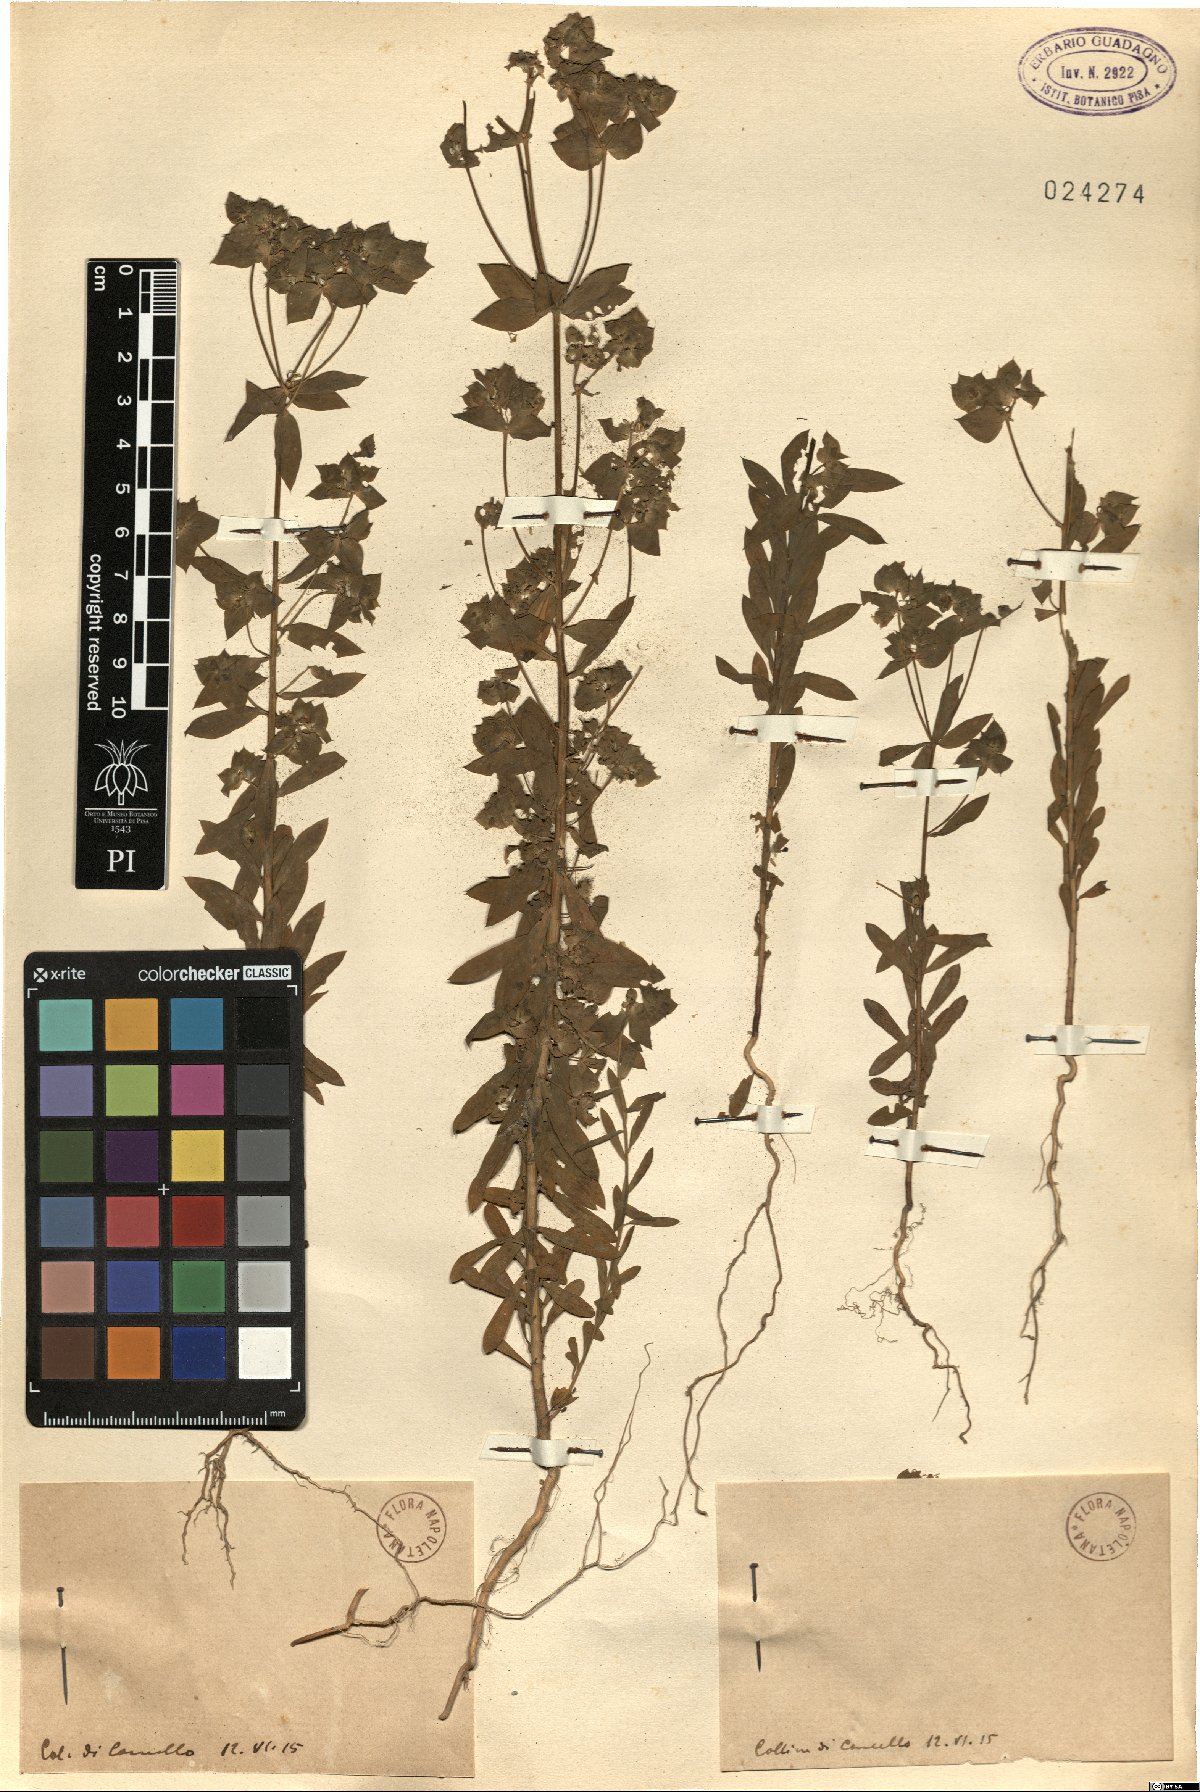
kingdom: Plantae
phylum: Tracheophyta
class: Magnoliopsida
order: Malpighiales
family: Euphorbiaceae
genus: Euphorbia
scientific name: Euphorbia
